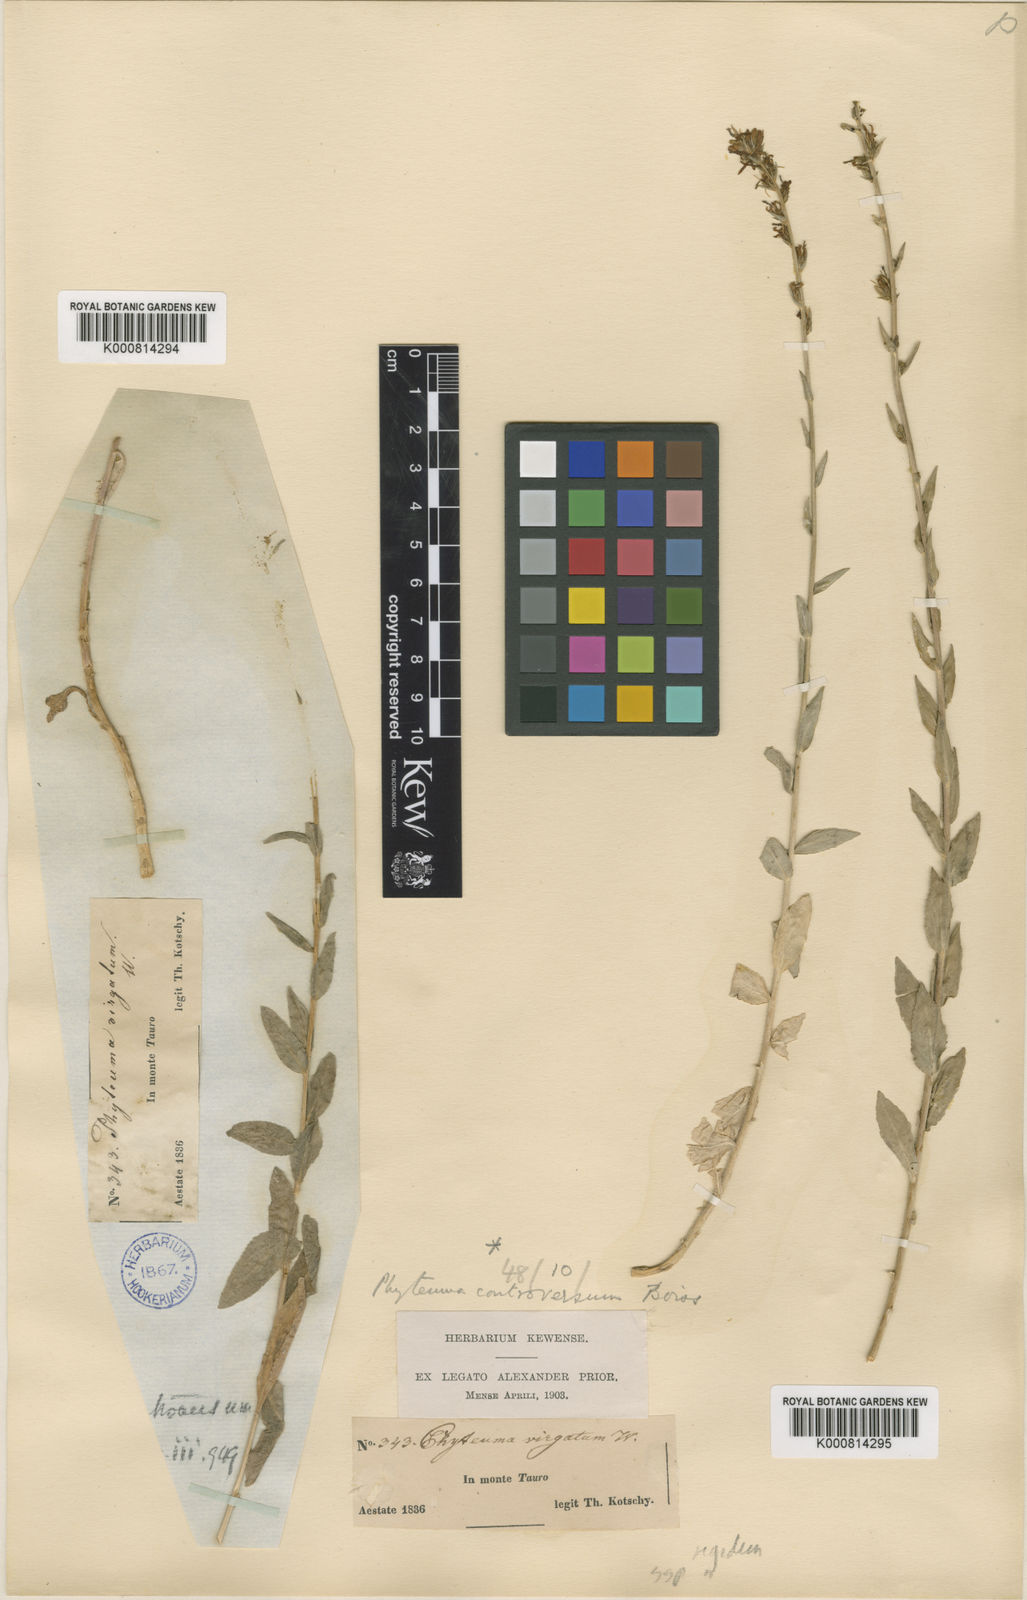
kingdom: Plantae
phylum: Tracheophyta
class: Magnoliopsida
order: Asterales
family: Campanulaceae
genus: Asyneuma
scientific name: Asyneuma rigidum
